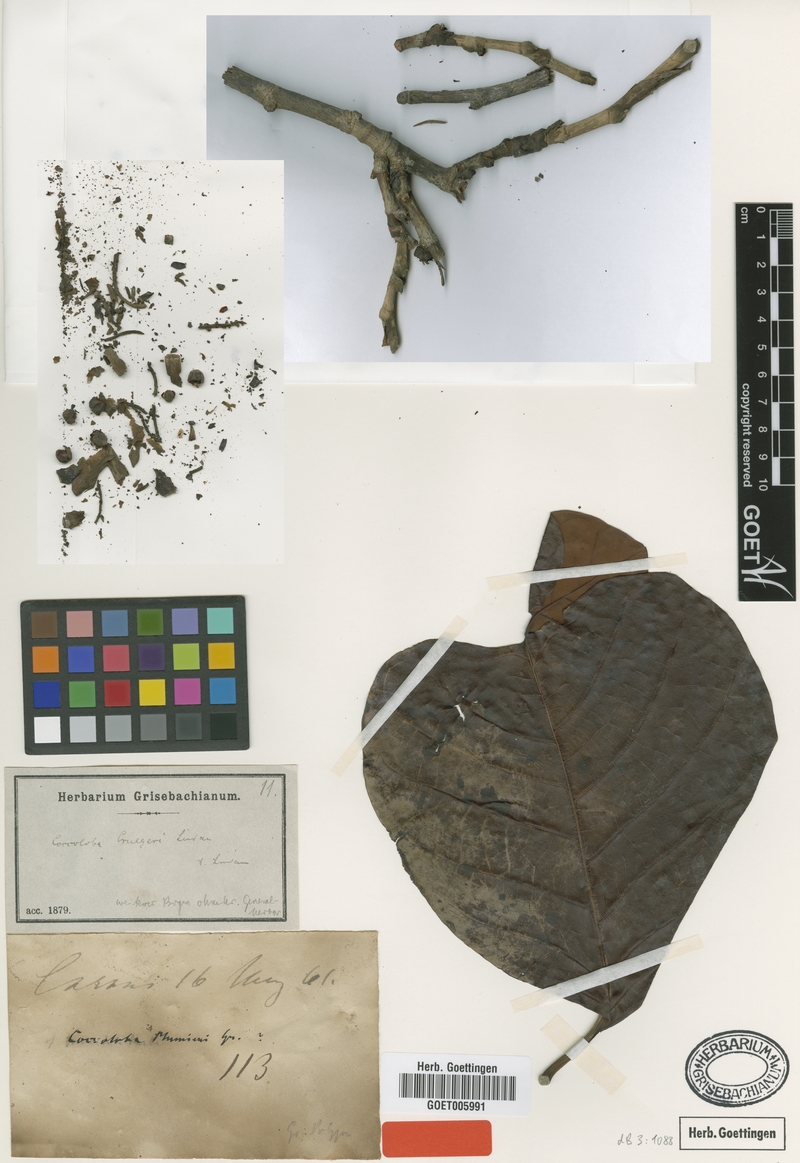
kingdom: Plantae
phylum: Tracheophyta
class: Magnoliopsida
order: Caryophyllales
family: Polygonaceae
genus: Coccoloba
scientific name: Coccoloba cruegeri
